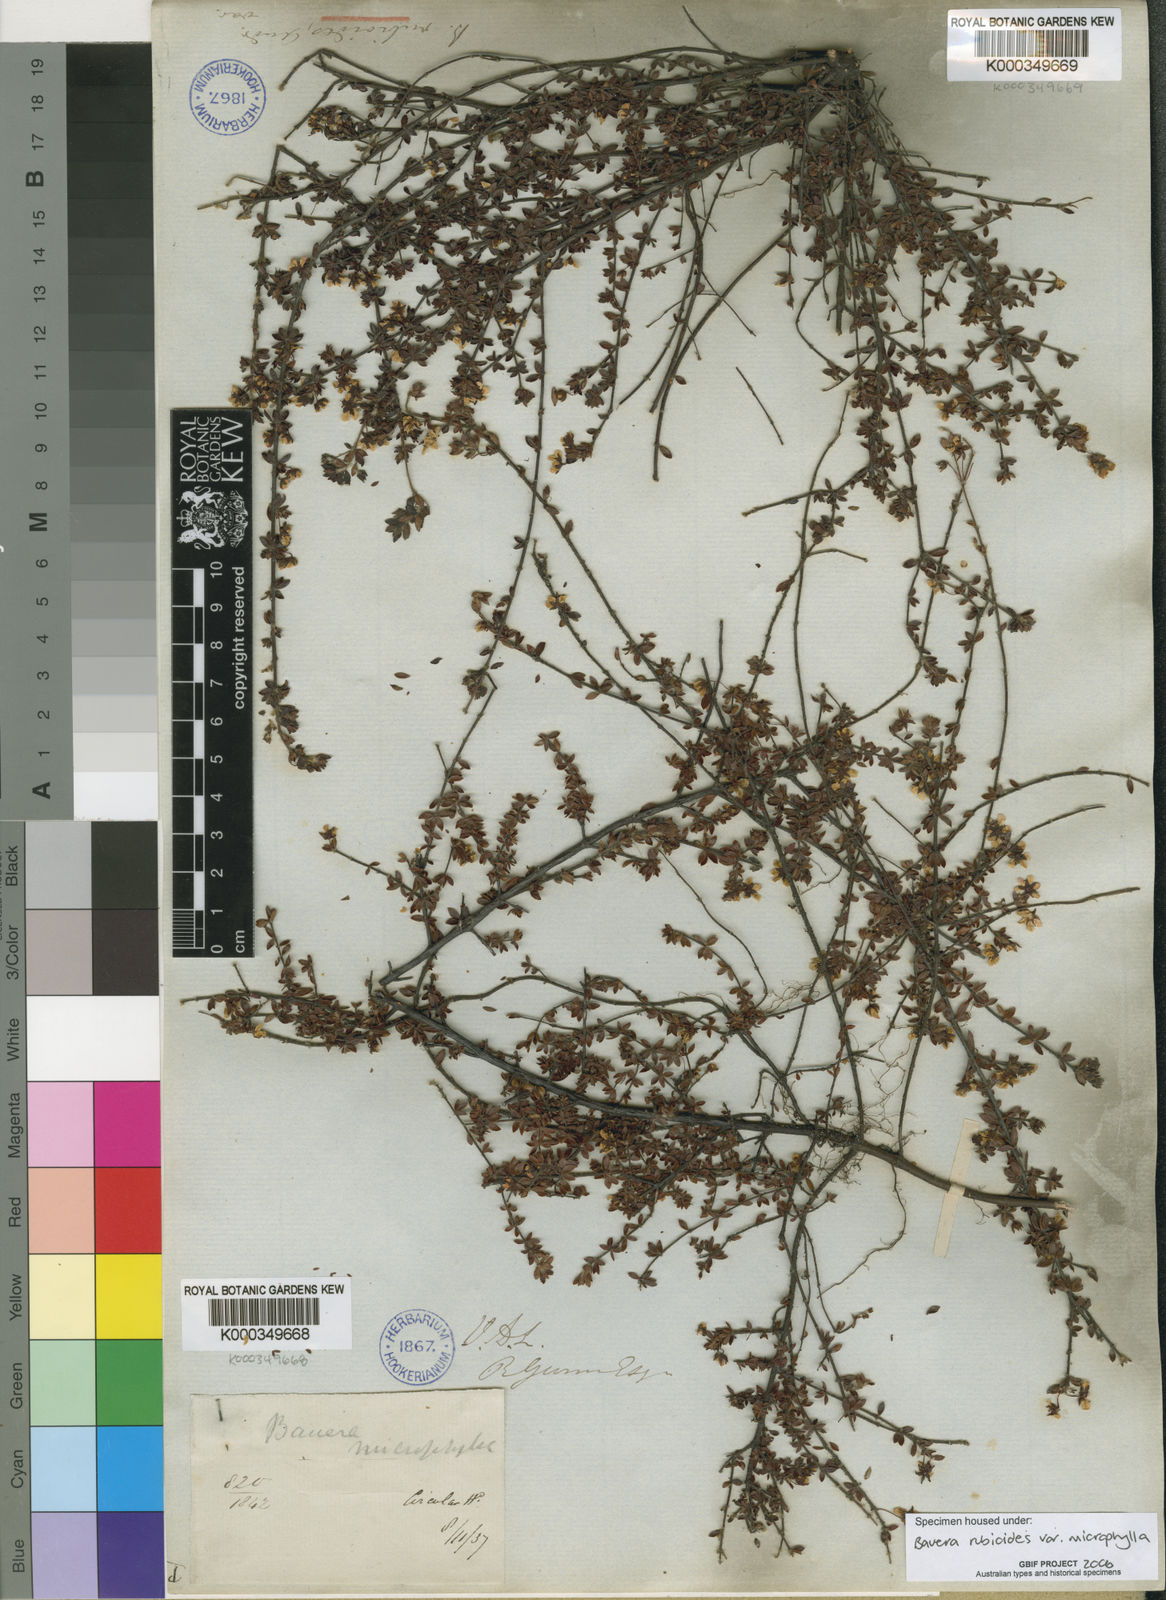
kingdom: Plantae
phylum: Tracheophyta
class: Magnoliopsida
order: Oxalidales
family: Cunoniaceae
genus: Bauera
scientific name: Bauera rubioides
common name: River-rose
